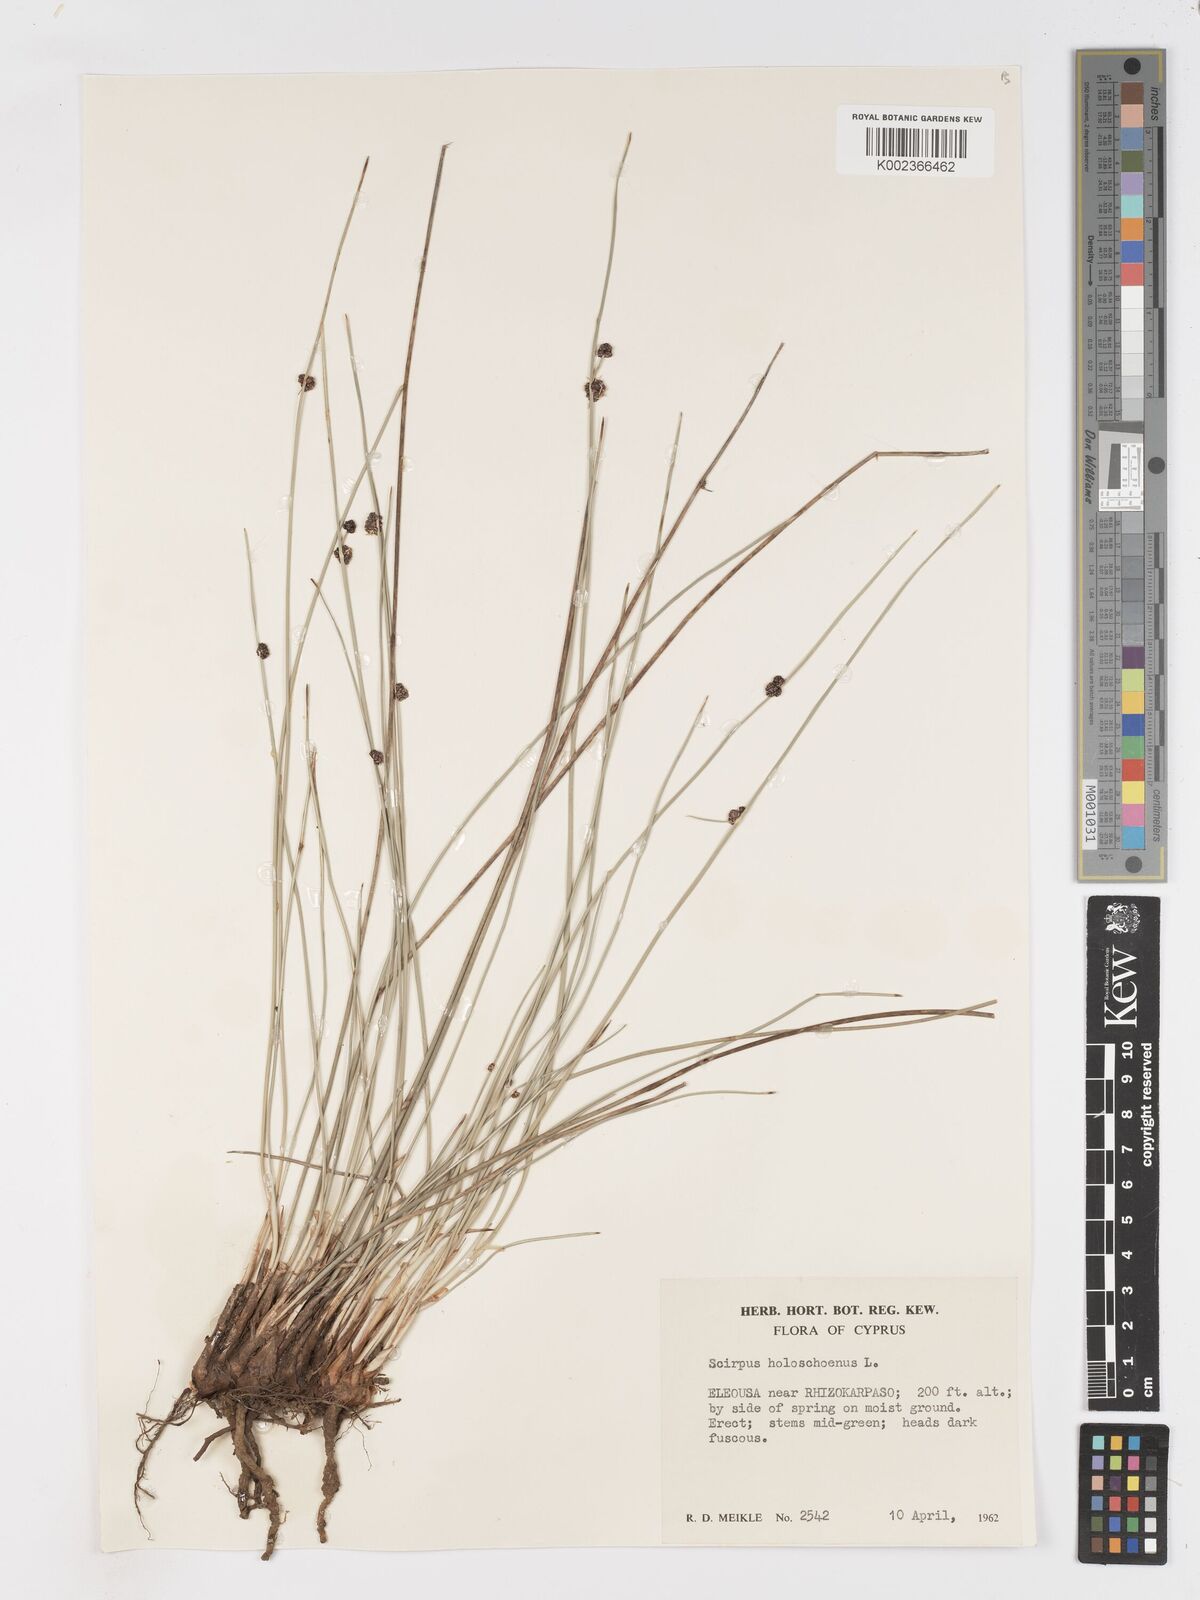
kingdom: Plantae
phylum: Tracheophyta
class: Liliopsida
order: Poales
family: Cyperaceae
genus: Scirpoides
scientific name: Scirpoides holoschoenus
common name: Round-headed club-rush
